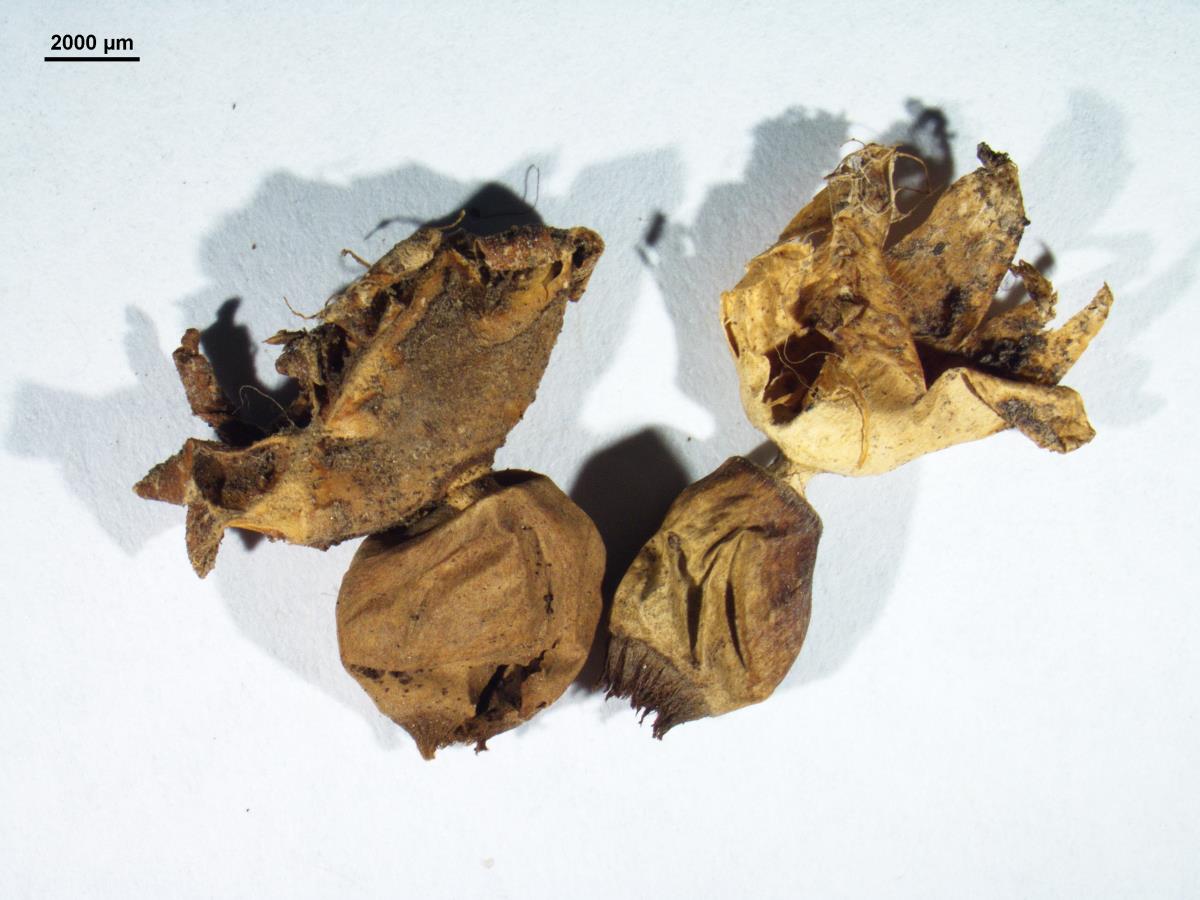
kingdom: Fungi
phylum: Basidiomycota
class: Agaricomycetes
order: Geastrales
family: Geastraceae
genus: Geastrum
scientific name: Geastrum quadrifidum
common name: Rayed earthstar
